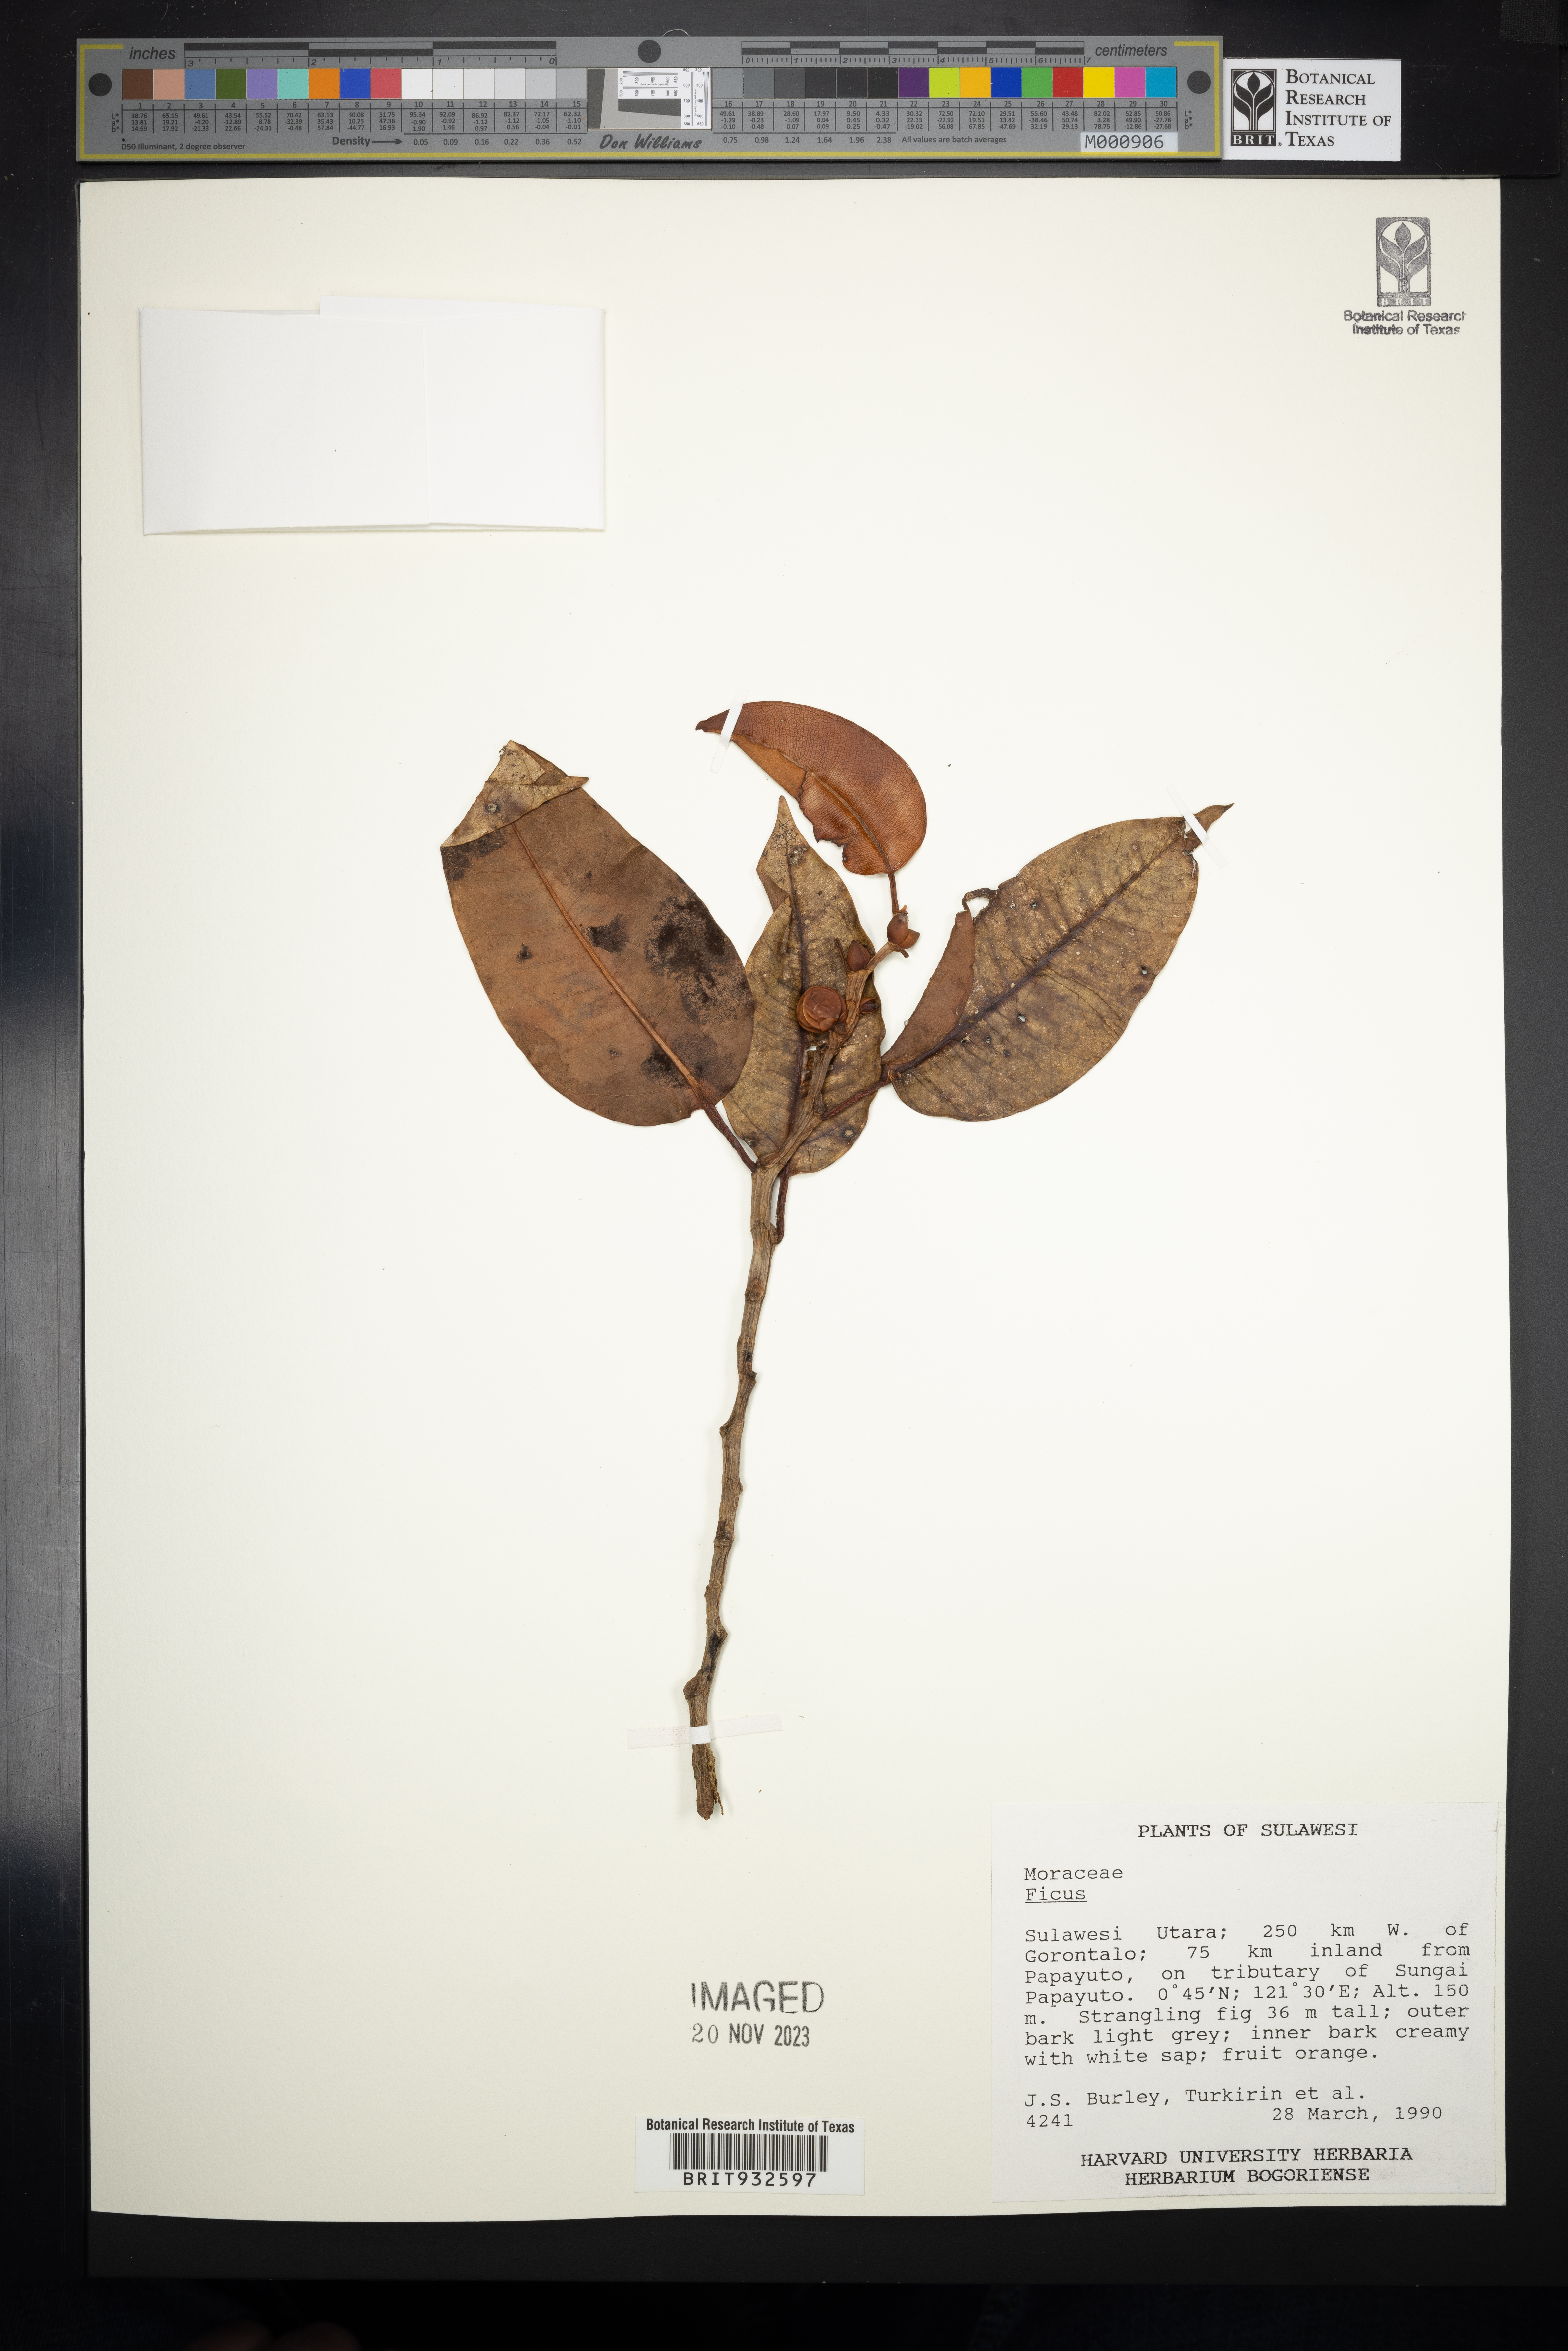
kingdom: Plantae
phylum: Tracheophyta
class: Magnoliopsida
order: Rosales
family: Moraceae
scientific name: Moraceae
